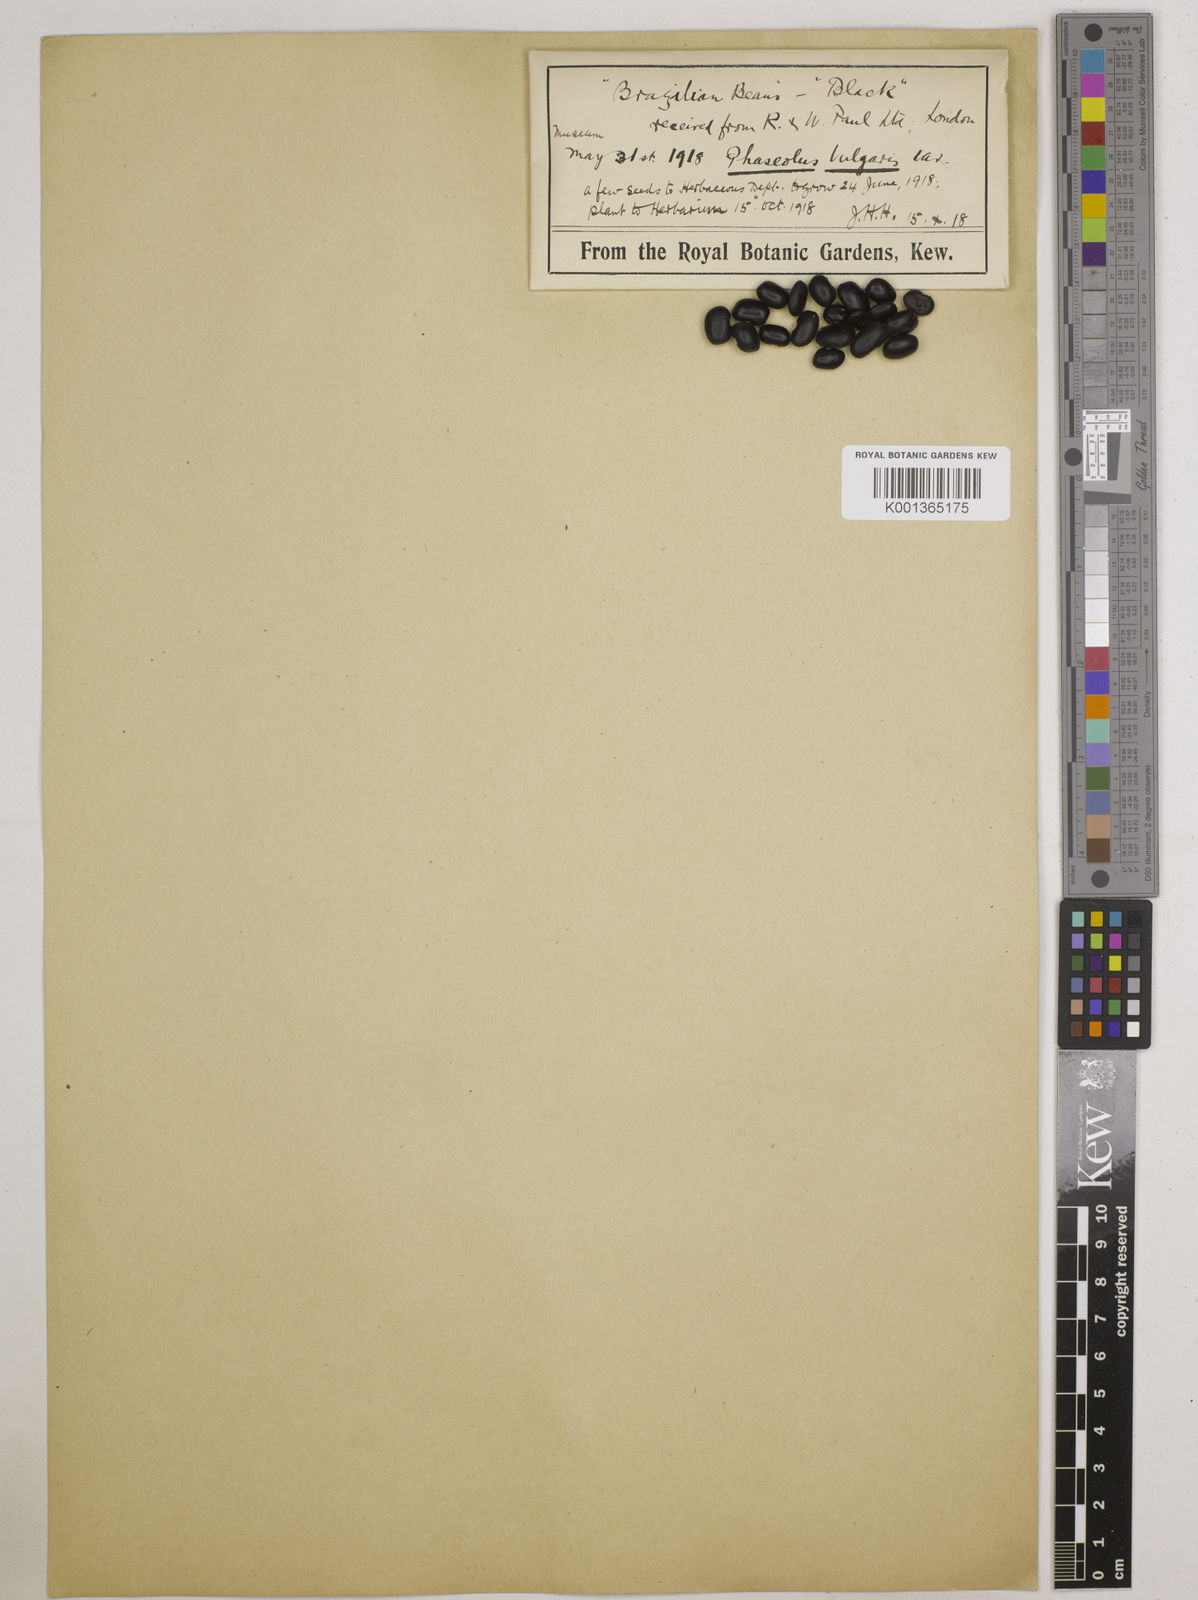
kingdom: Plantae
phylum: Tracheophyta
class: Magnoliopsida
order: Fabales
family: Fabaceae
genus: Phaseolus
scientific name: Phaseolus vulgaris
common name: Bean
